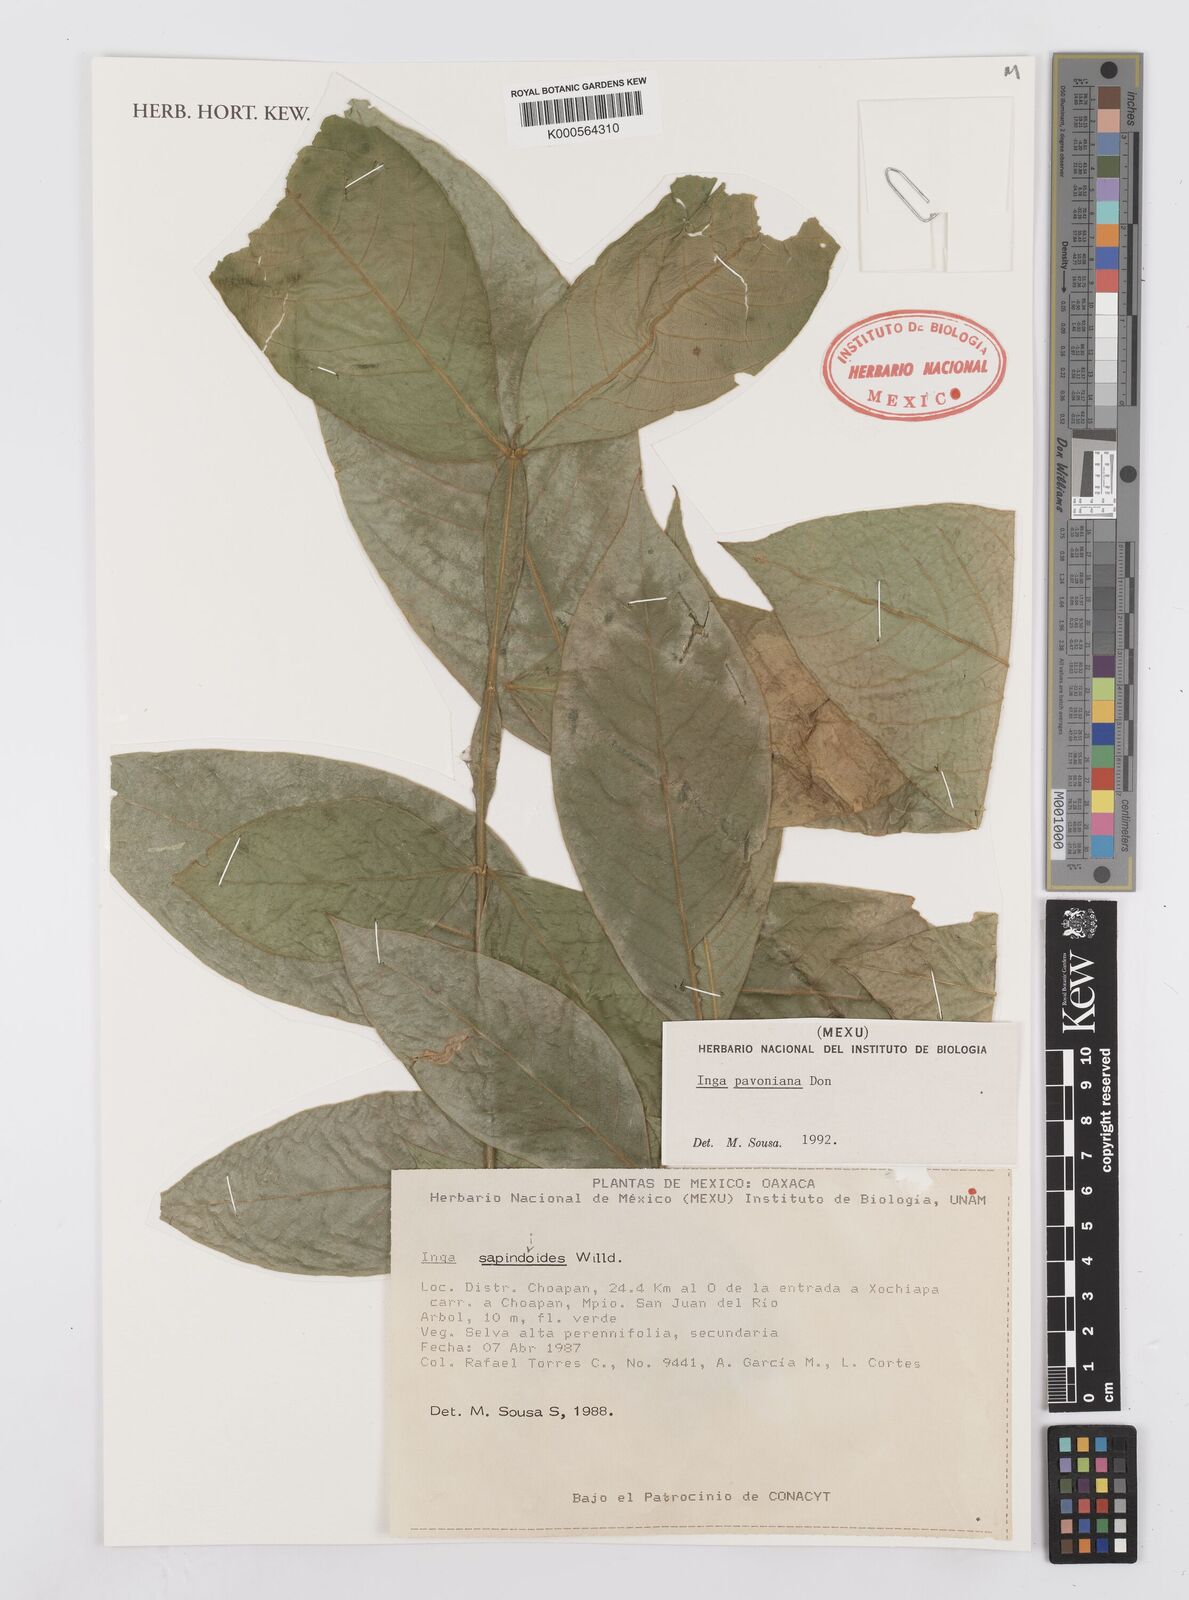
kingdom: Plantae
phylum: Tracheophyta
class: Magnoliopsida
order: Fabales
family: Fabaceae
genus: Inga
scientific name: Inga sapindoides
